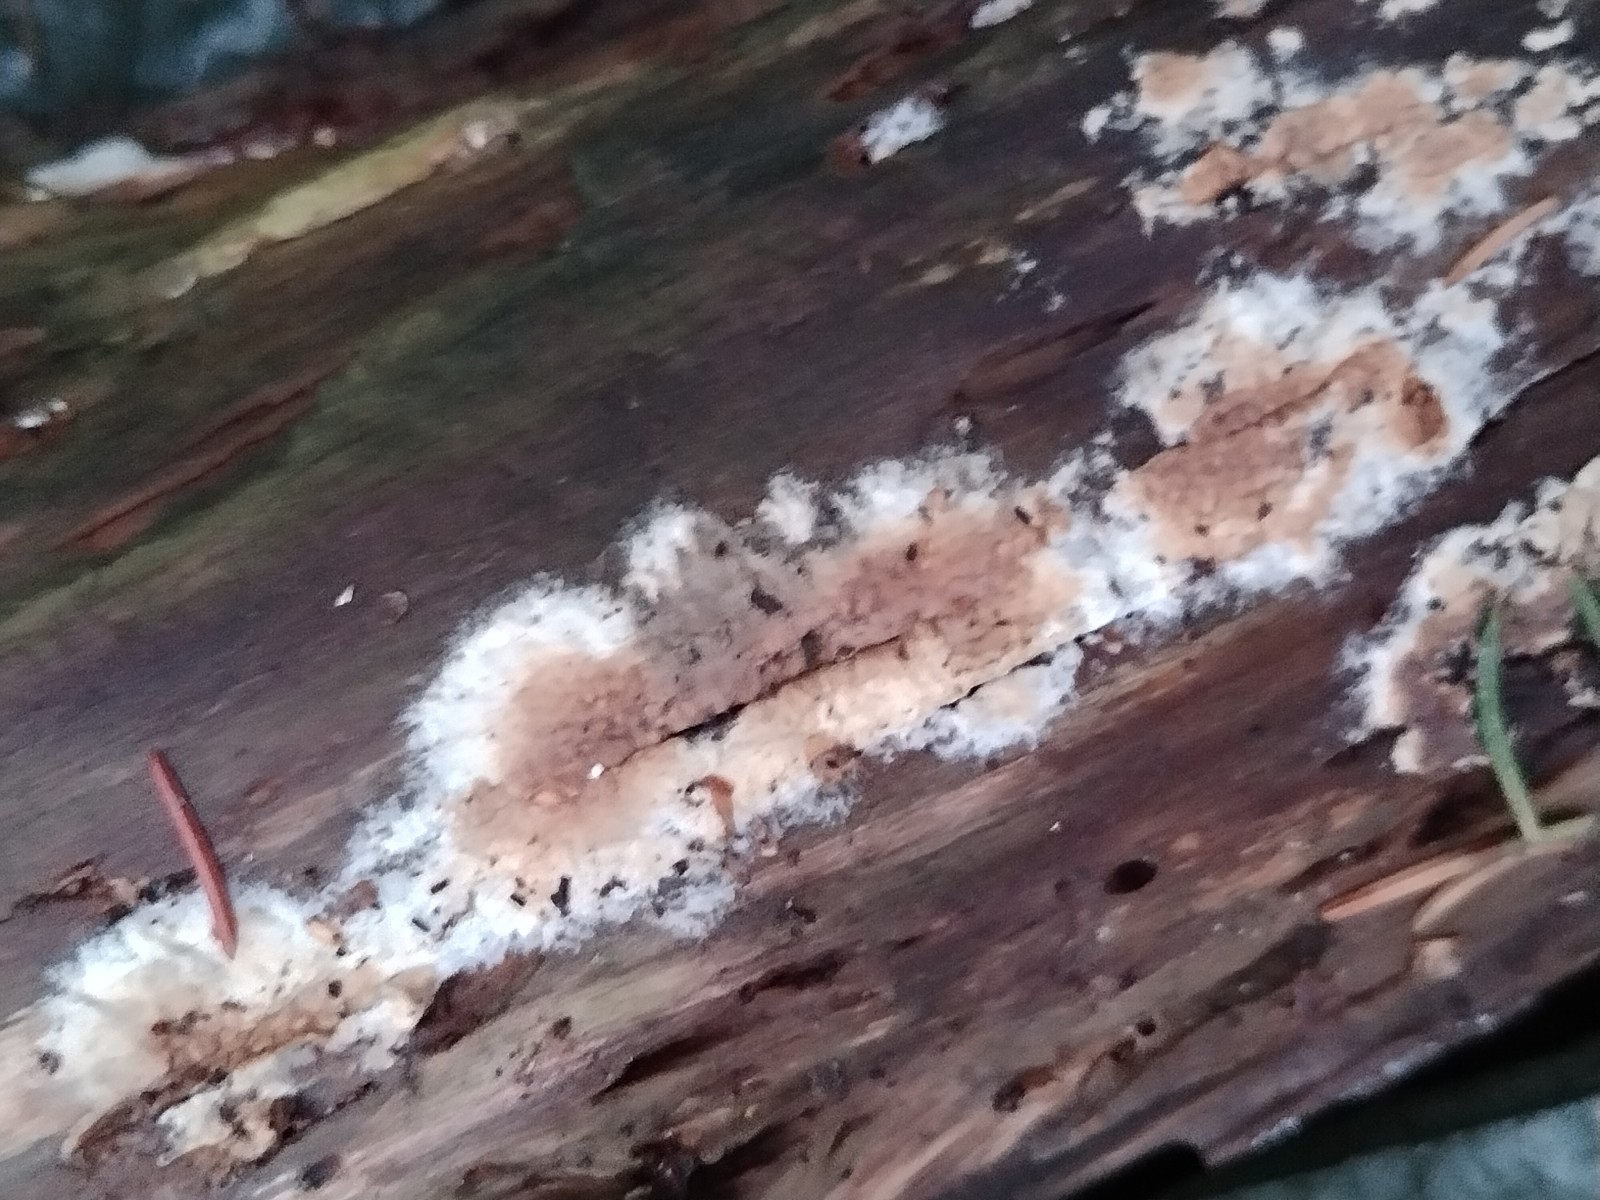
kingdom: Fungi
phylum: Basidiomycota
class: Agaricomycetes
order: Boletales
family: Coniophoraceae
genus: Coniophora
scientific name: Coniophora puteana
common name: gul tømmersvamp
